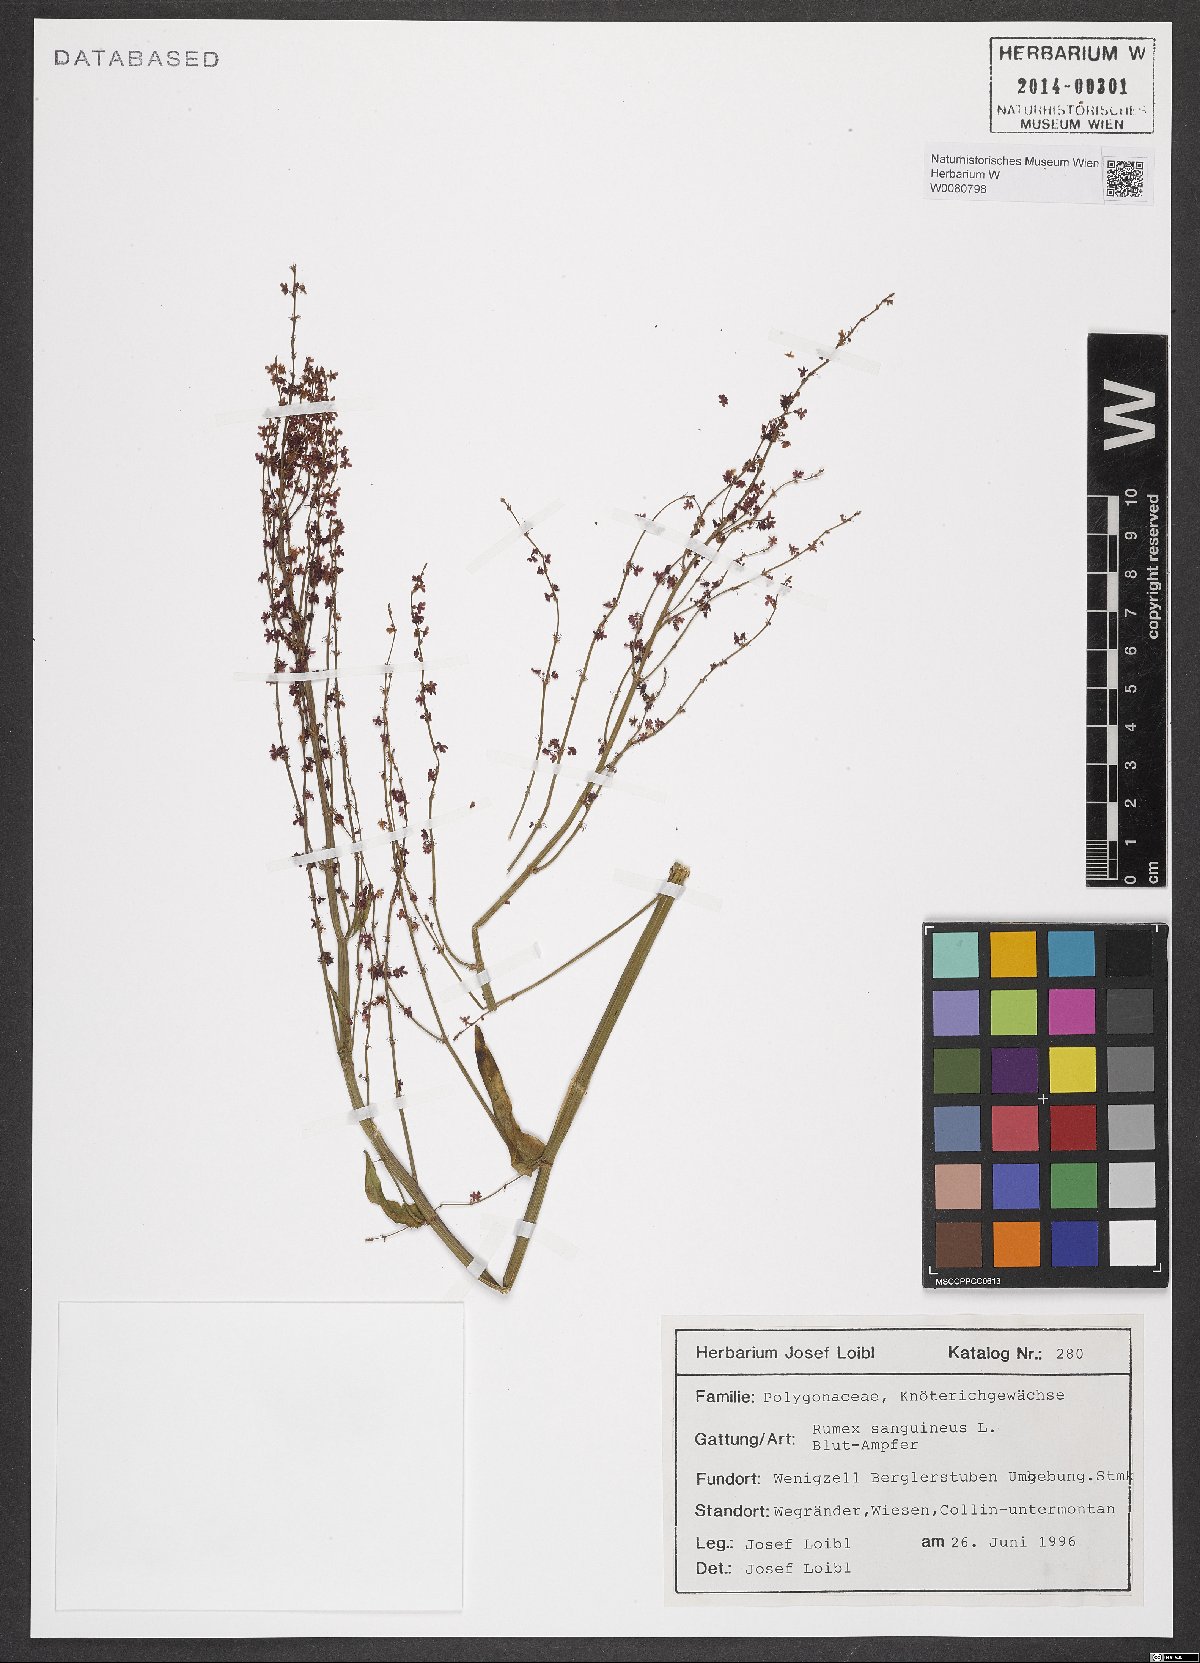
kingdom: Plantae
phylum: Tracheophyta
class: Magnoliopsida
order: Caryophyllales
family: Polygonaceae
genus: Rumex
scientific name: Rumex acetosella
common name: Common sheep sorrel
